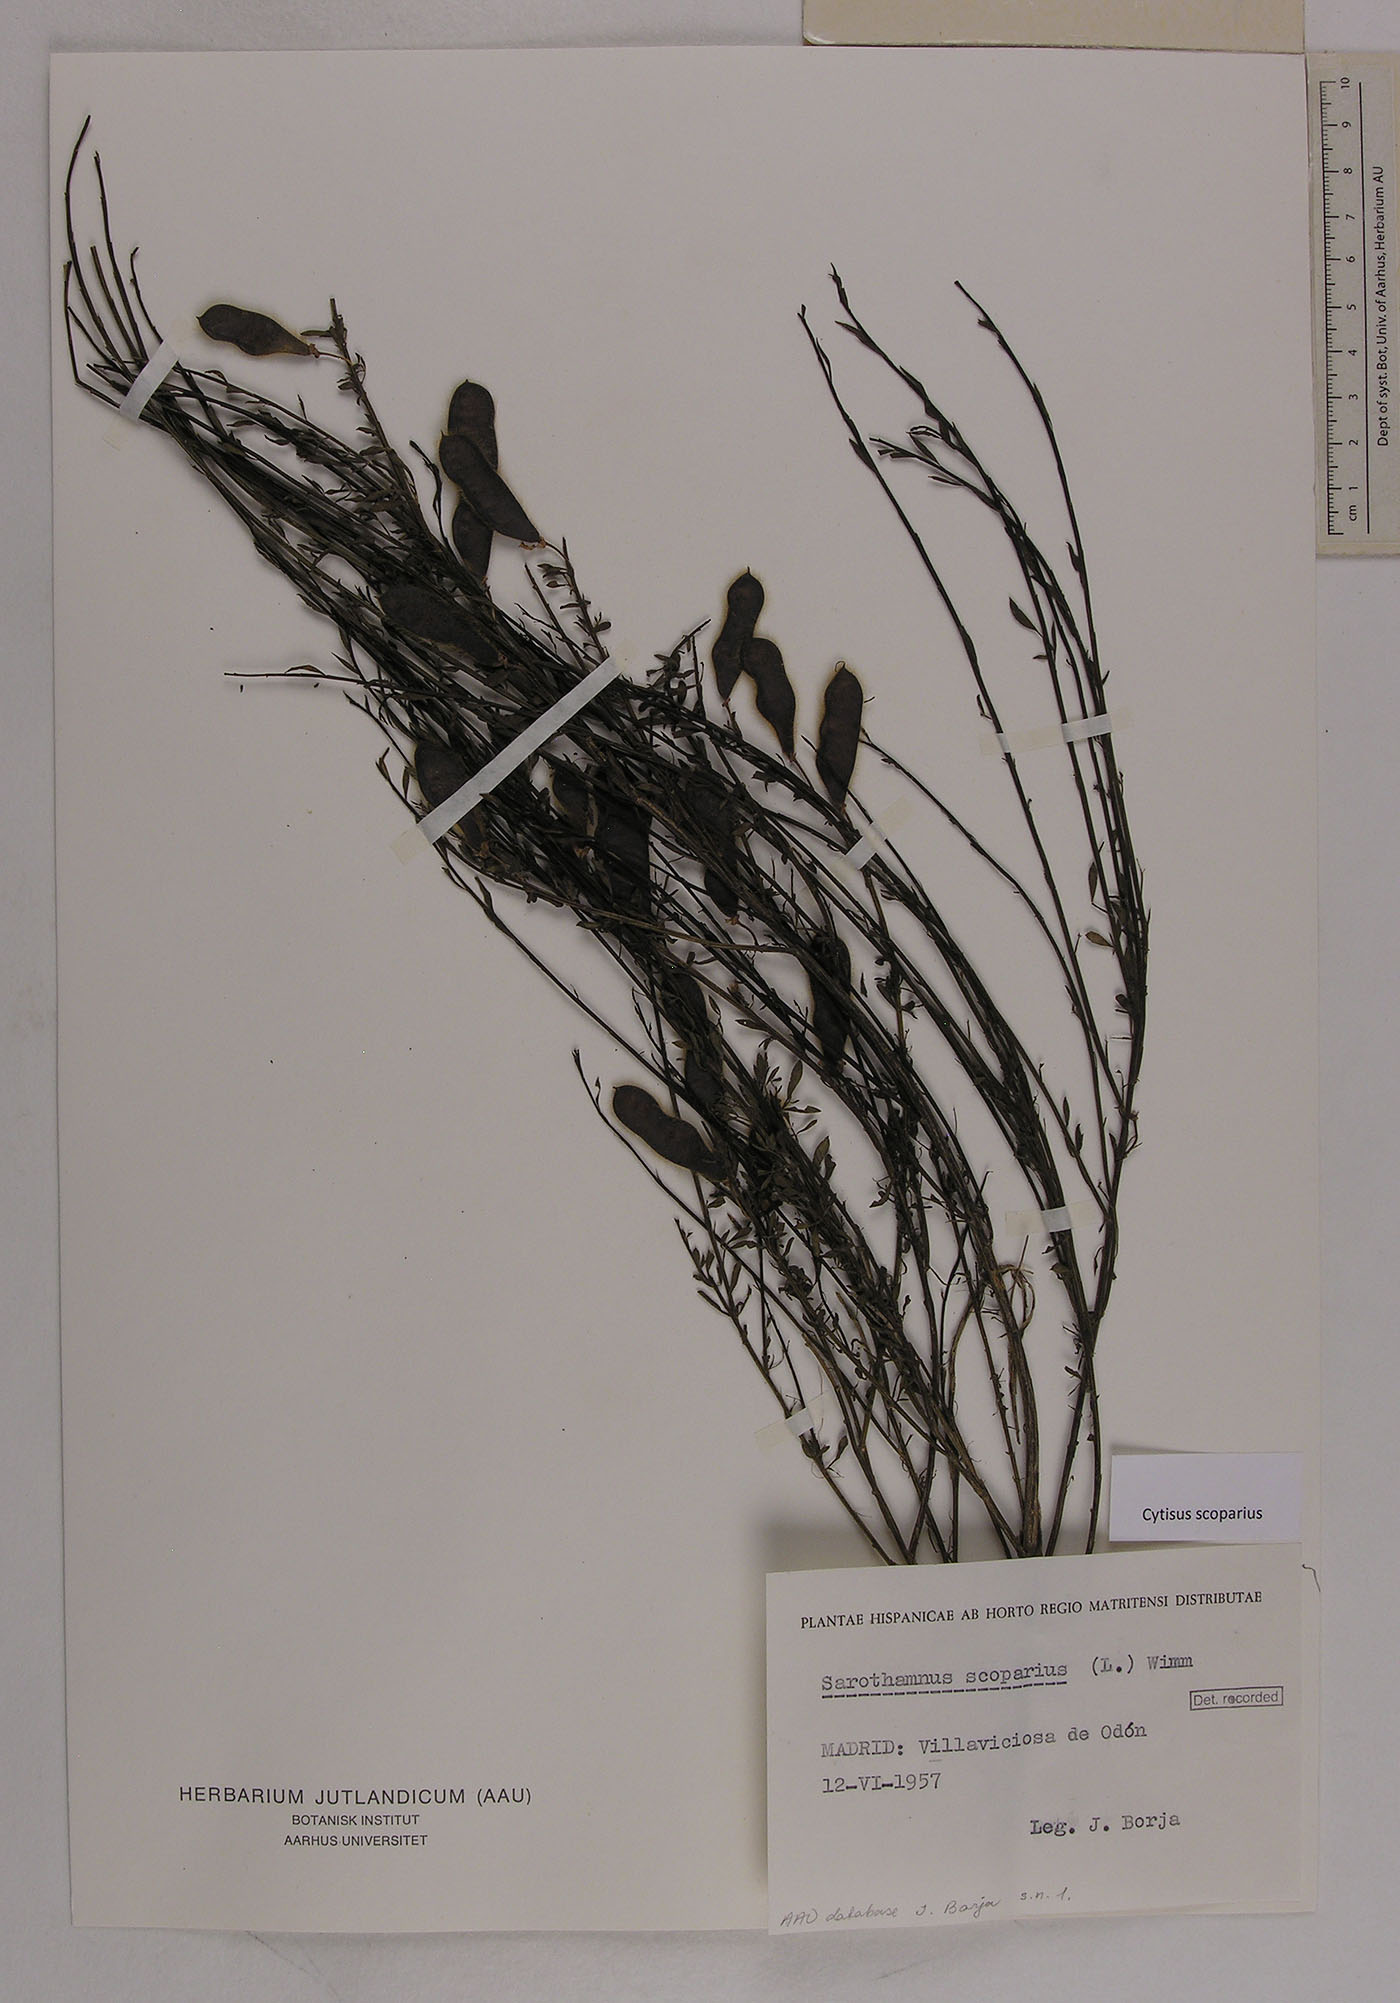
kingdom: Plantae
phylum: Tracheophyta
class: Magnoliopsida
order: Fabales
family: Fabaceae
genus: Cytisus
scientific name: Cytisus scoparius
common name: Scotch broom
